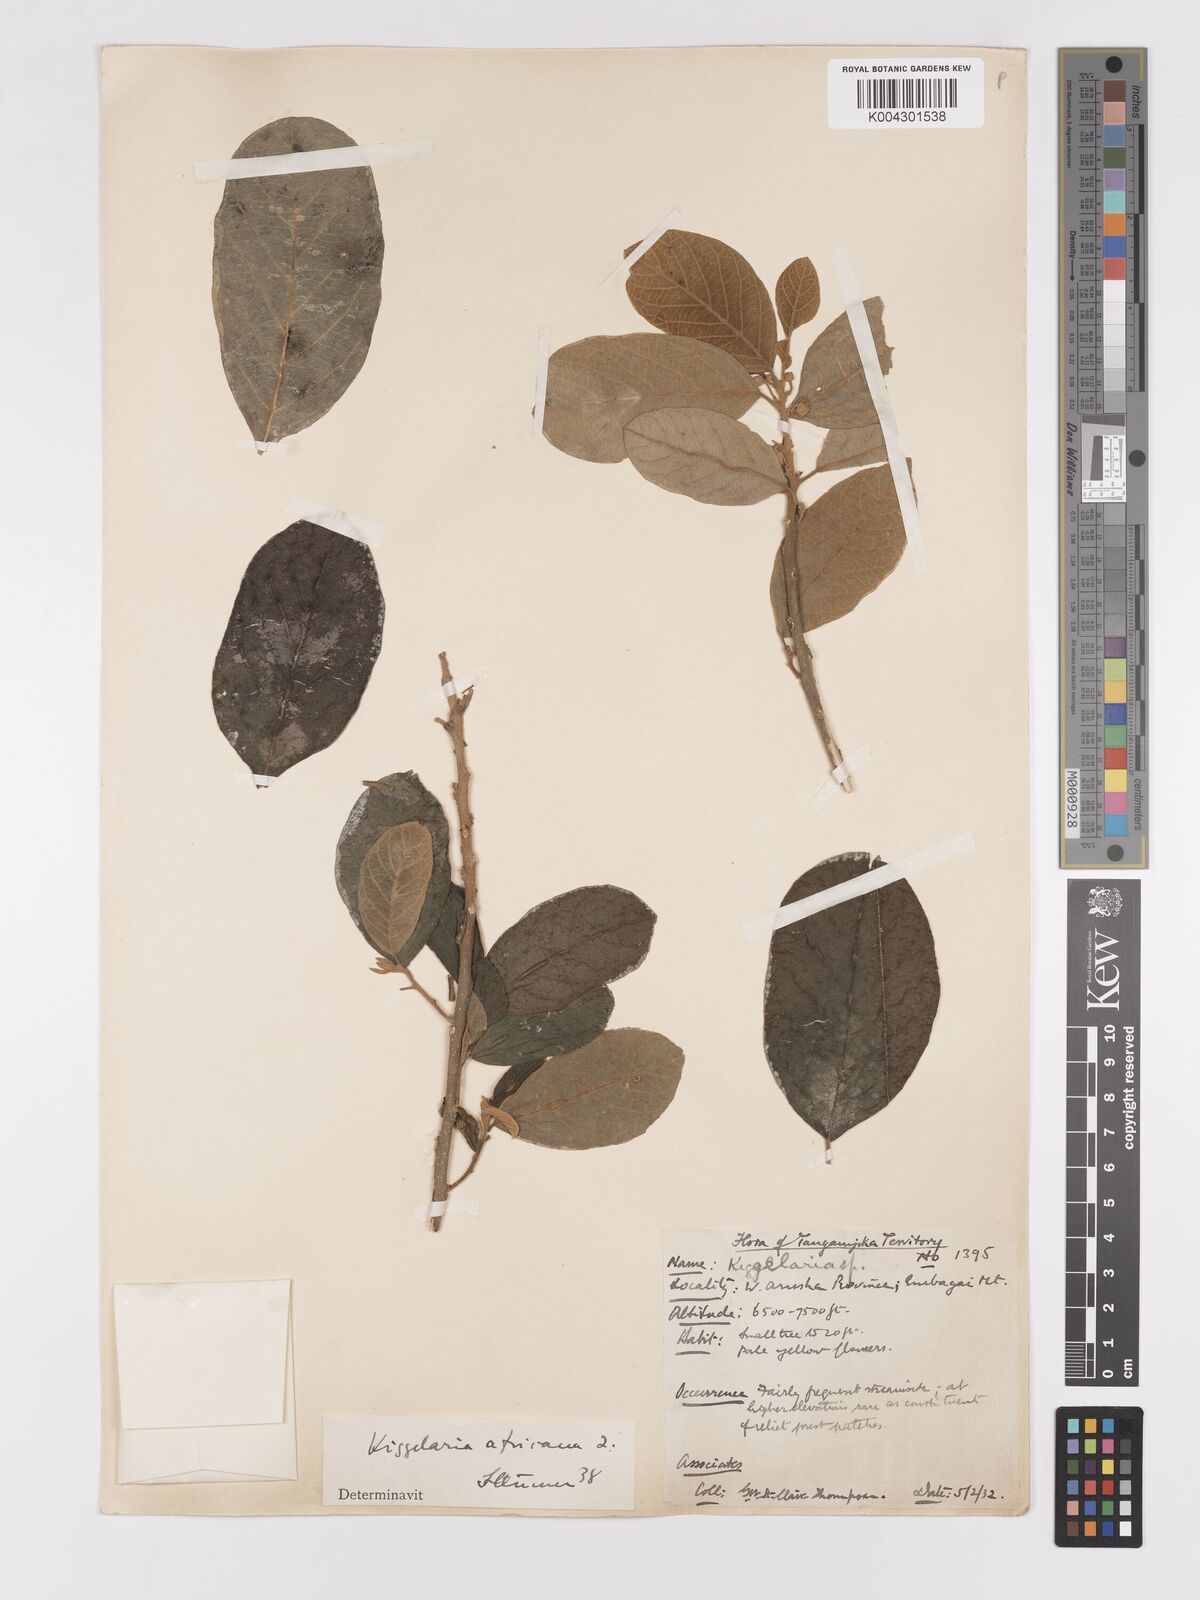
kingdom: Plantae
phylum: Tracheophyta
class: Magnoliopsida
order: Malpighiales
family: Achariaceae
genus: Kiggelaria
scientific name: Kiggelaria africana
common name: Wild peach
